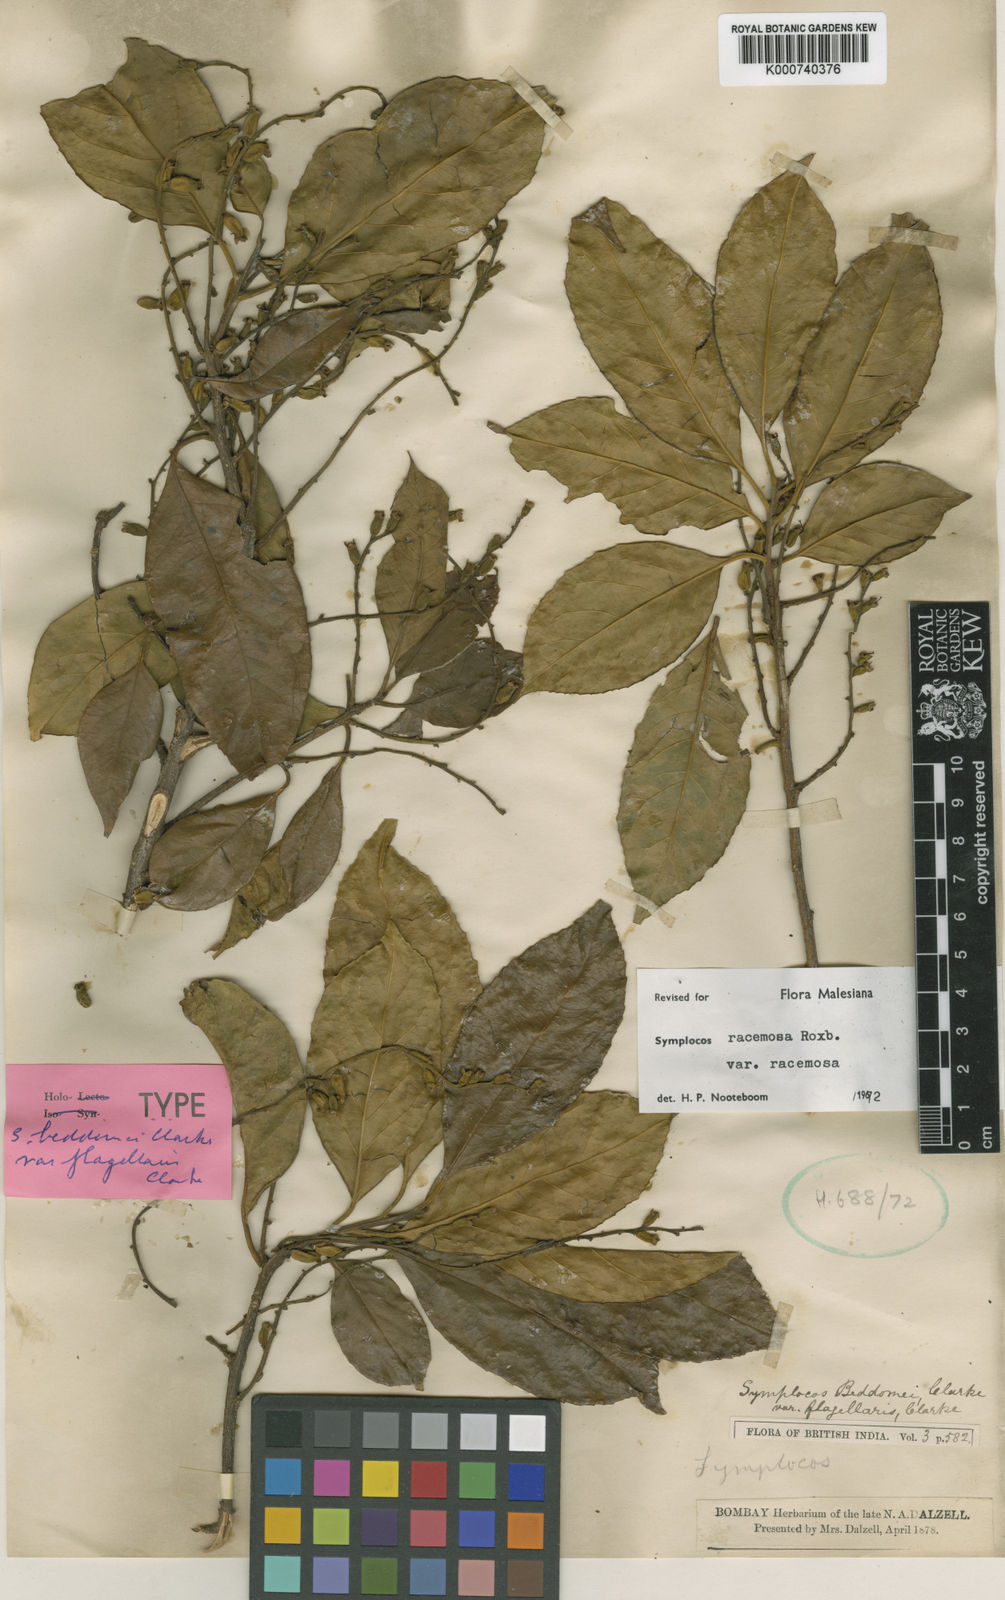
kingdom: Plantae
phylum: Tracheophyta
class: Magnoliopsida
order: Ericales
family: Symplocaceae
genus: Symplocos
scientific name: Symplocos racemosa
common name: Lodhtree
